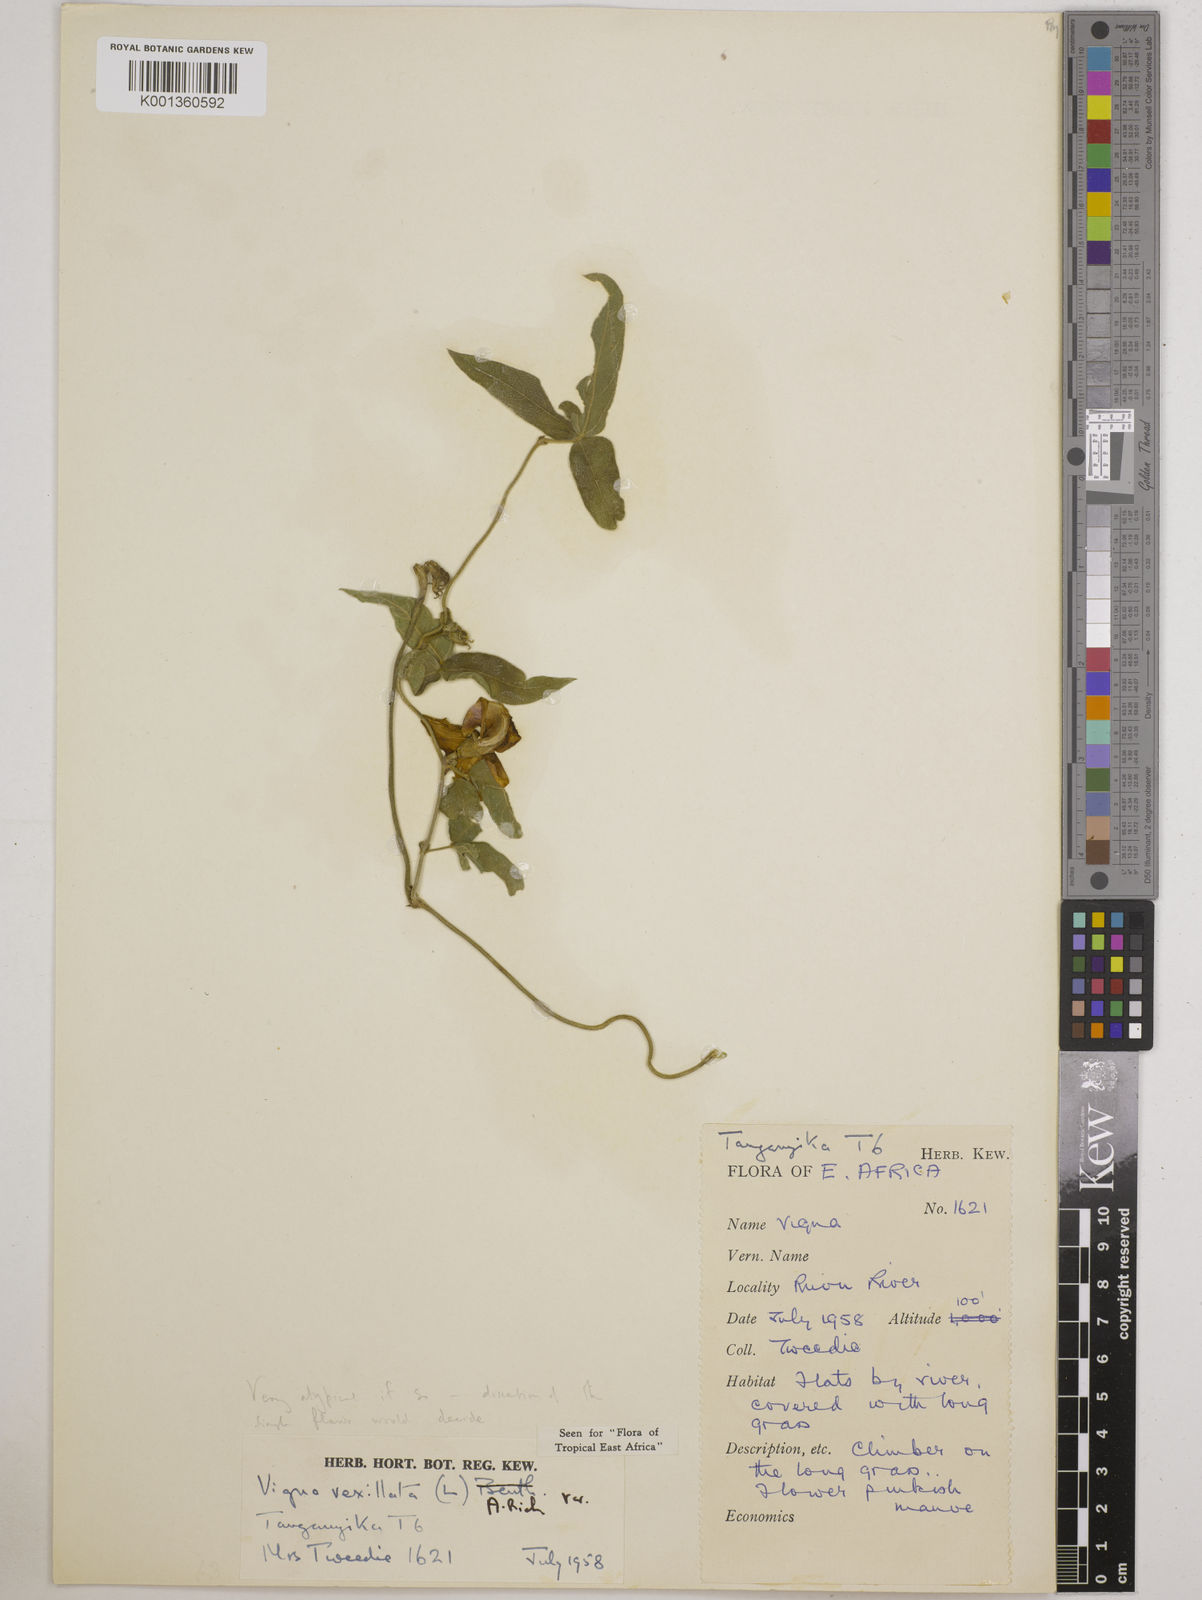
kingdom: Plantae
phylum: Tracheophyta
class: Magnoliopsida
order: Fabales
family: Fabaceae
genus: Vigna
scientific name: Vigna vexillata
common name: Zombi pea
